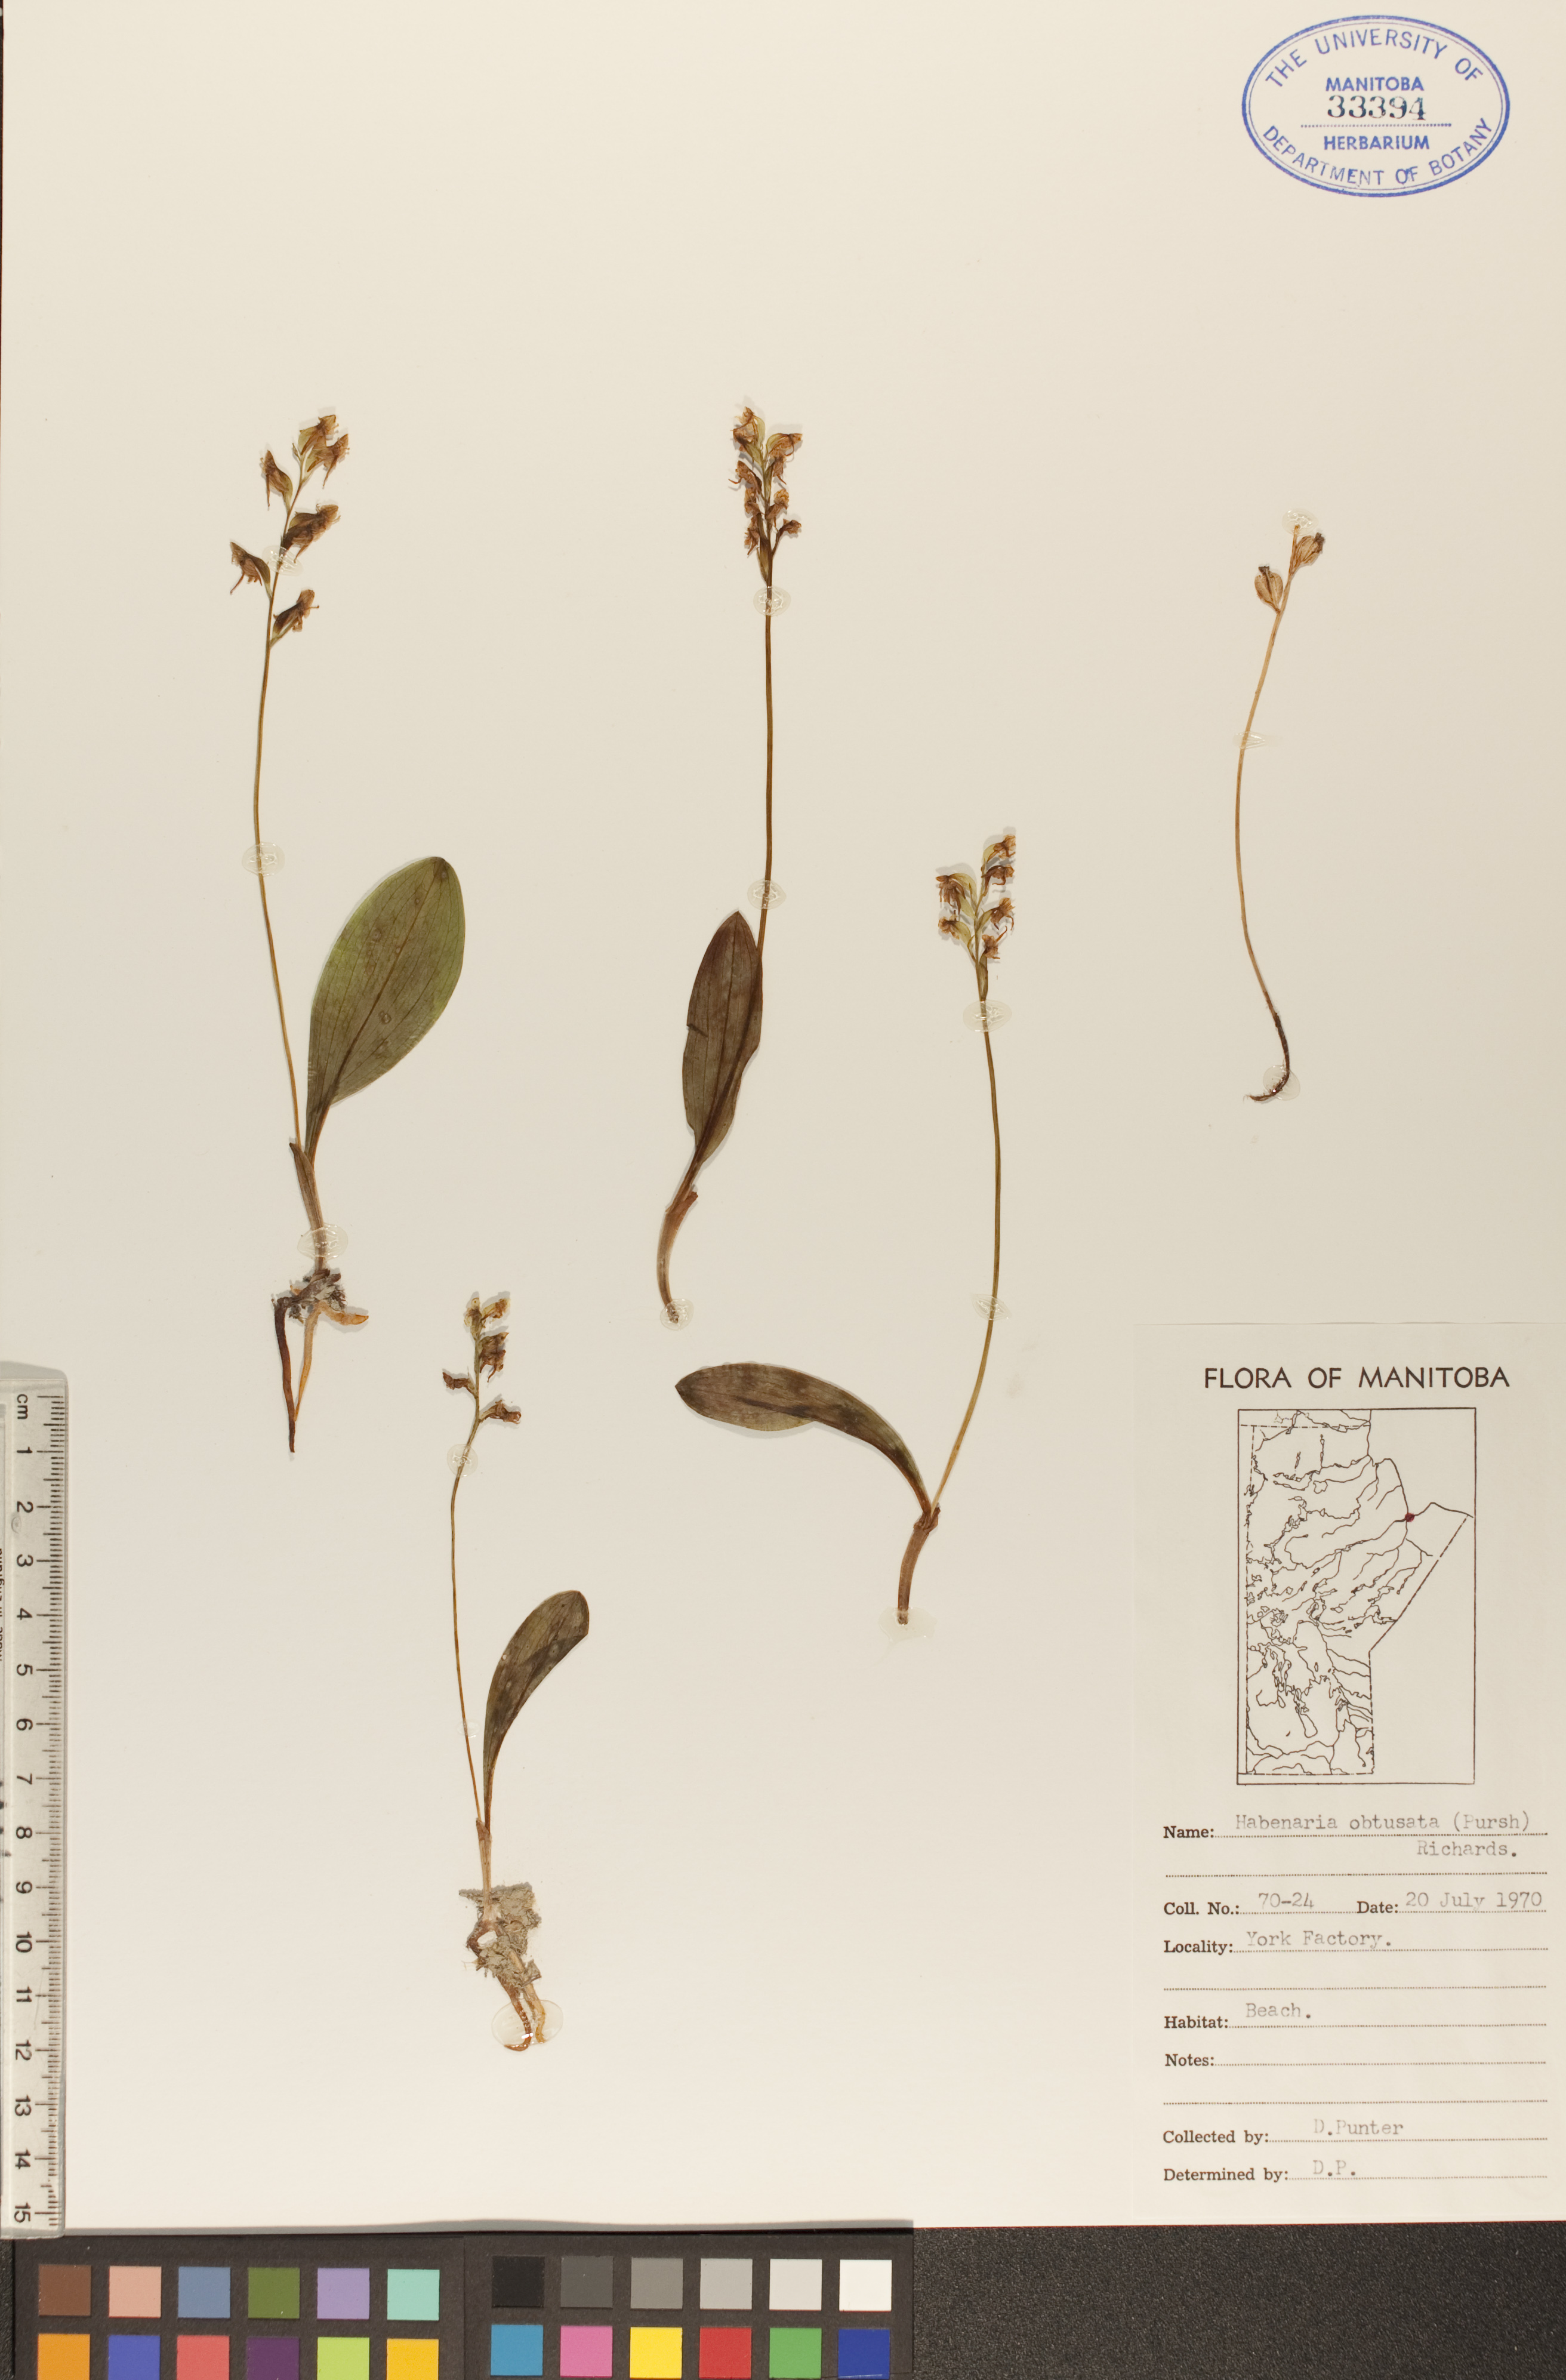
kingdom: Plantae
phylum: Tracheophyta
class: Liliopsida
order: Asparagales
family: Orchidaceae
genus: Platanthera
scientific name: Platanthera obtusata
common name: Blunt bog orchid
